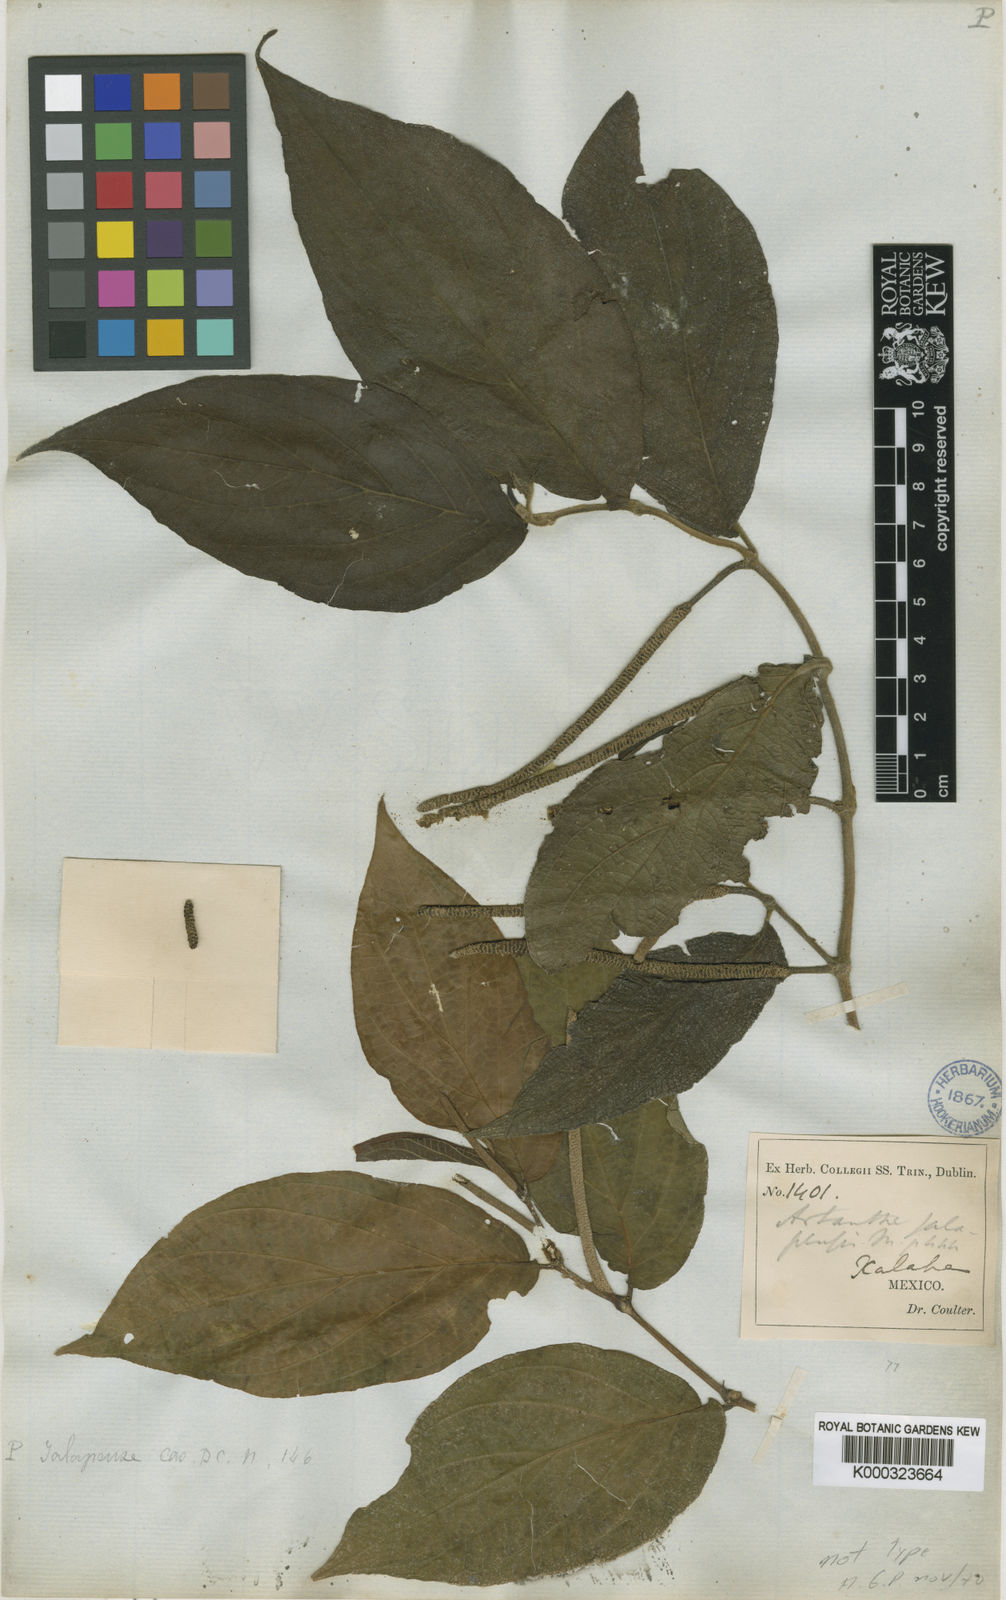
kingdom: Plantae
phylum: Tracheophyta
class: Magnoliopsida
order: Piperales
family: Piperaceae
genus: Piper
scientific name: Piper jacquemontianum
